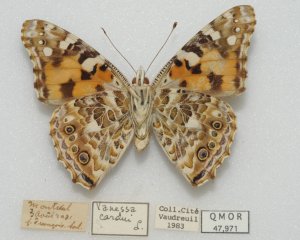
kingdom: Animalia
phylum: Arthropoda
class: Insecta
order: Lepidoptera
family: Nymphalidae
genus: Vanessa
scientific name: Vanessa cardui
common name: Painted Lady
